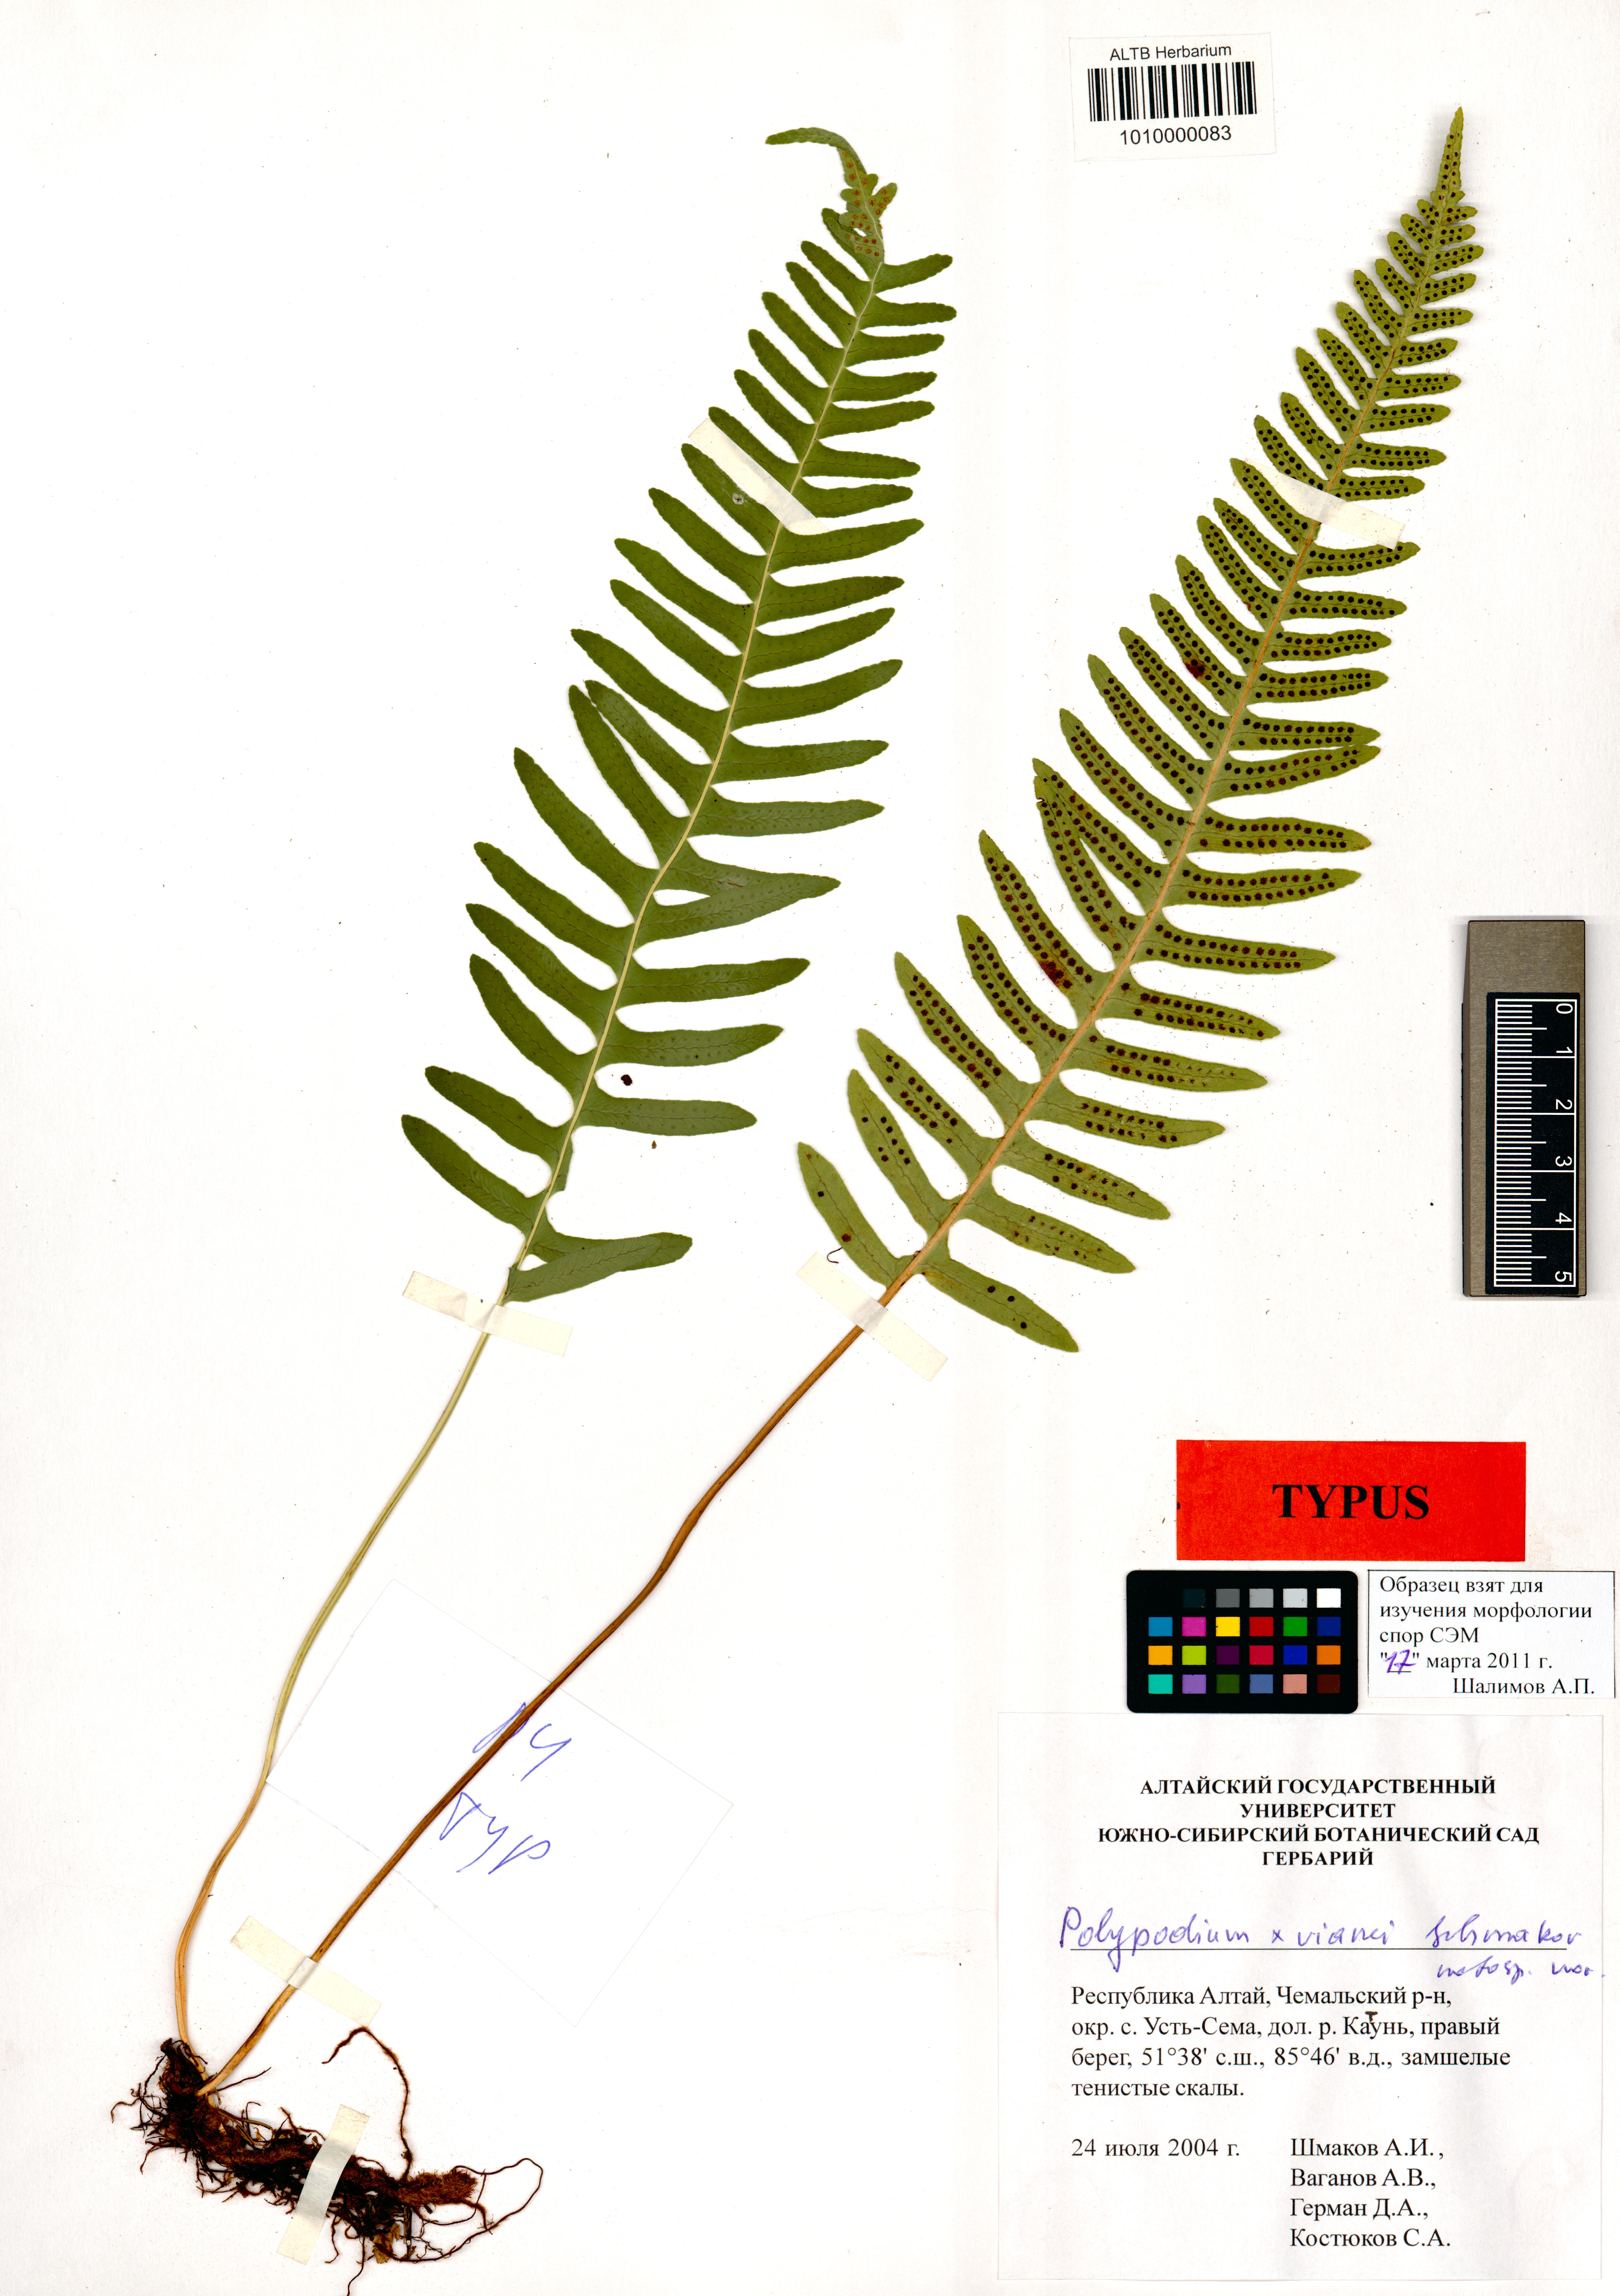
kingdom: Plantae
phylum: Tracheophyta
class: Polypodiopsida
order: Polypodiales
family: Polypodiaceae
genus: Polypodium
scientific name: Polypodium vianei
